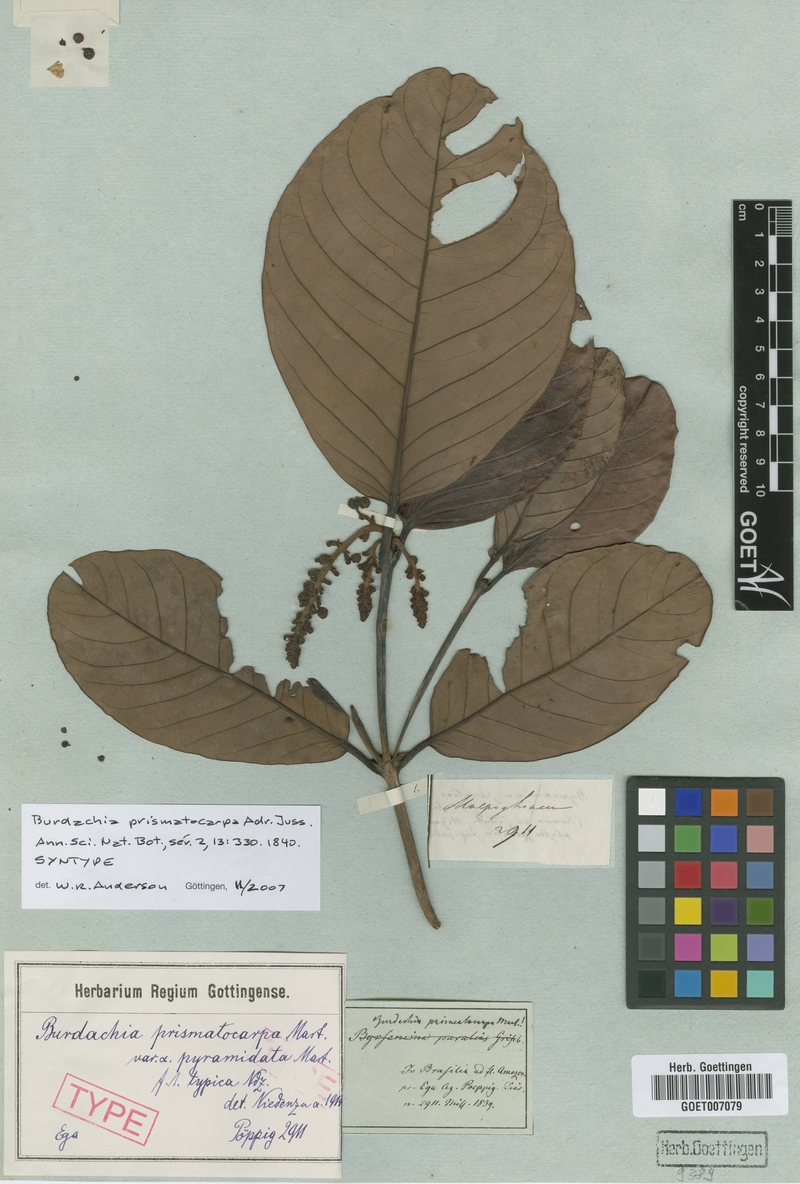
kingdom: Plantae
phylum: Tracheophyta
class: Magnoliopsida
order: Malpighiales
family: Malpighiaceae
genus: Burdachia
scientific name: Burdachia prismatocarpa
